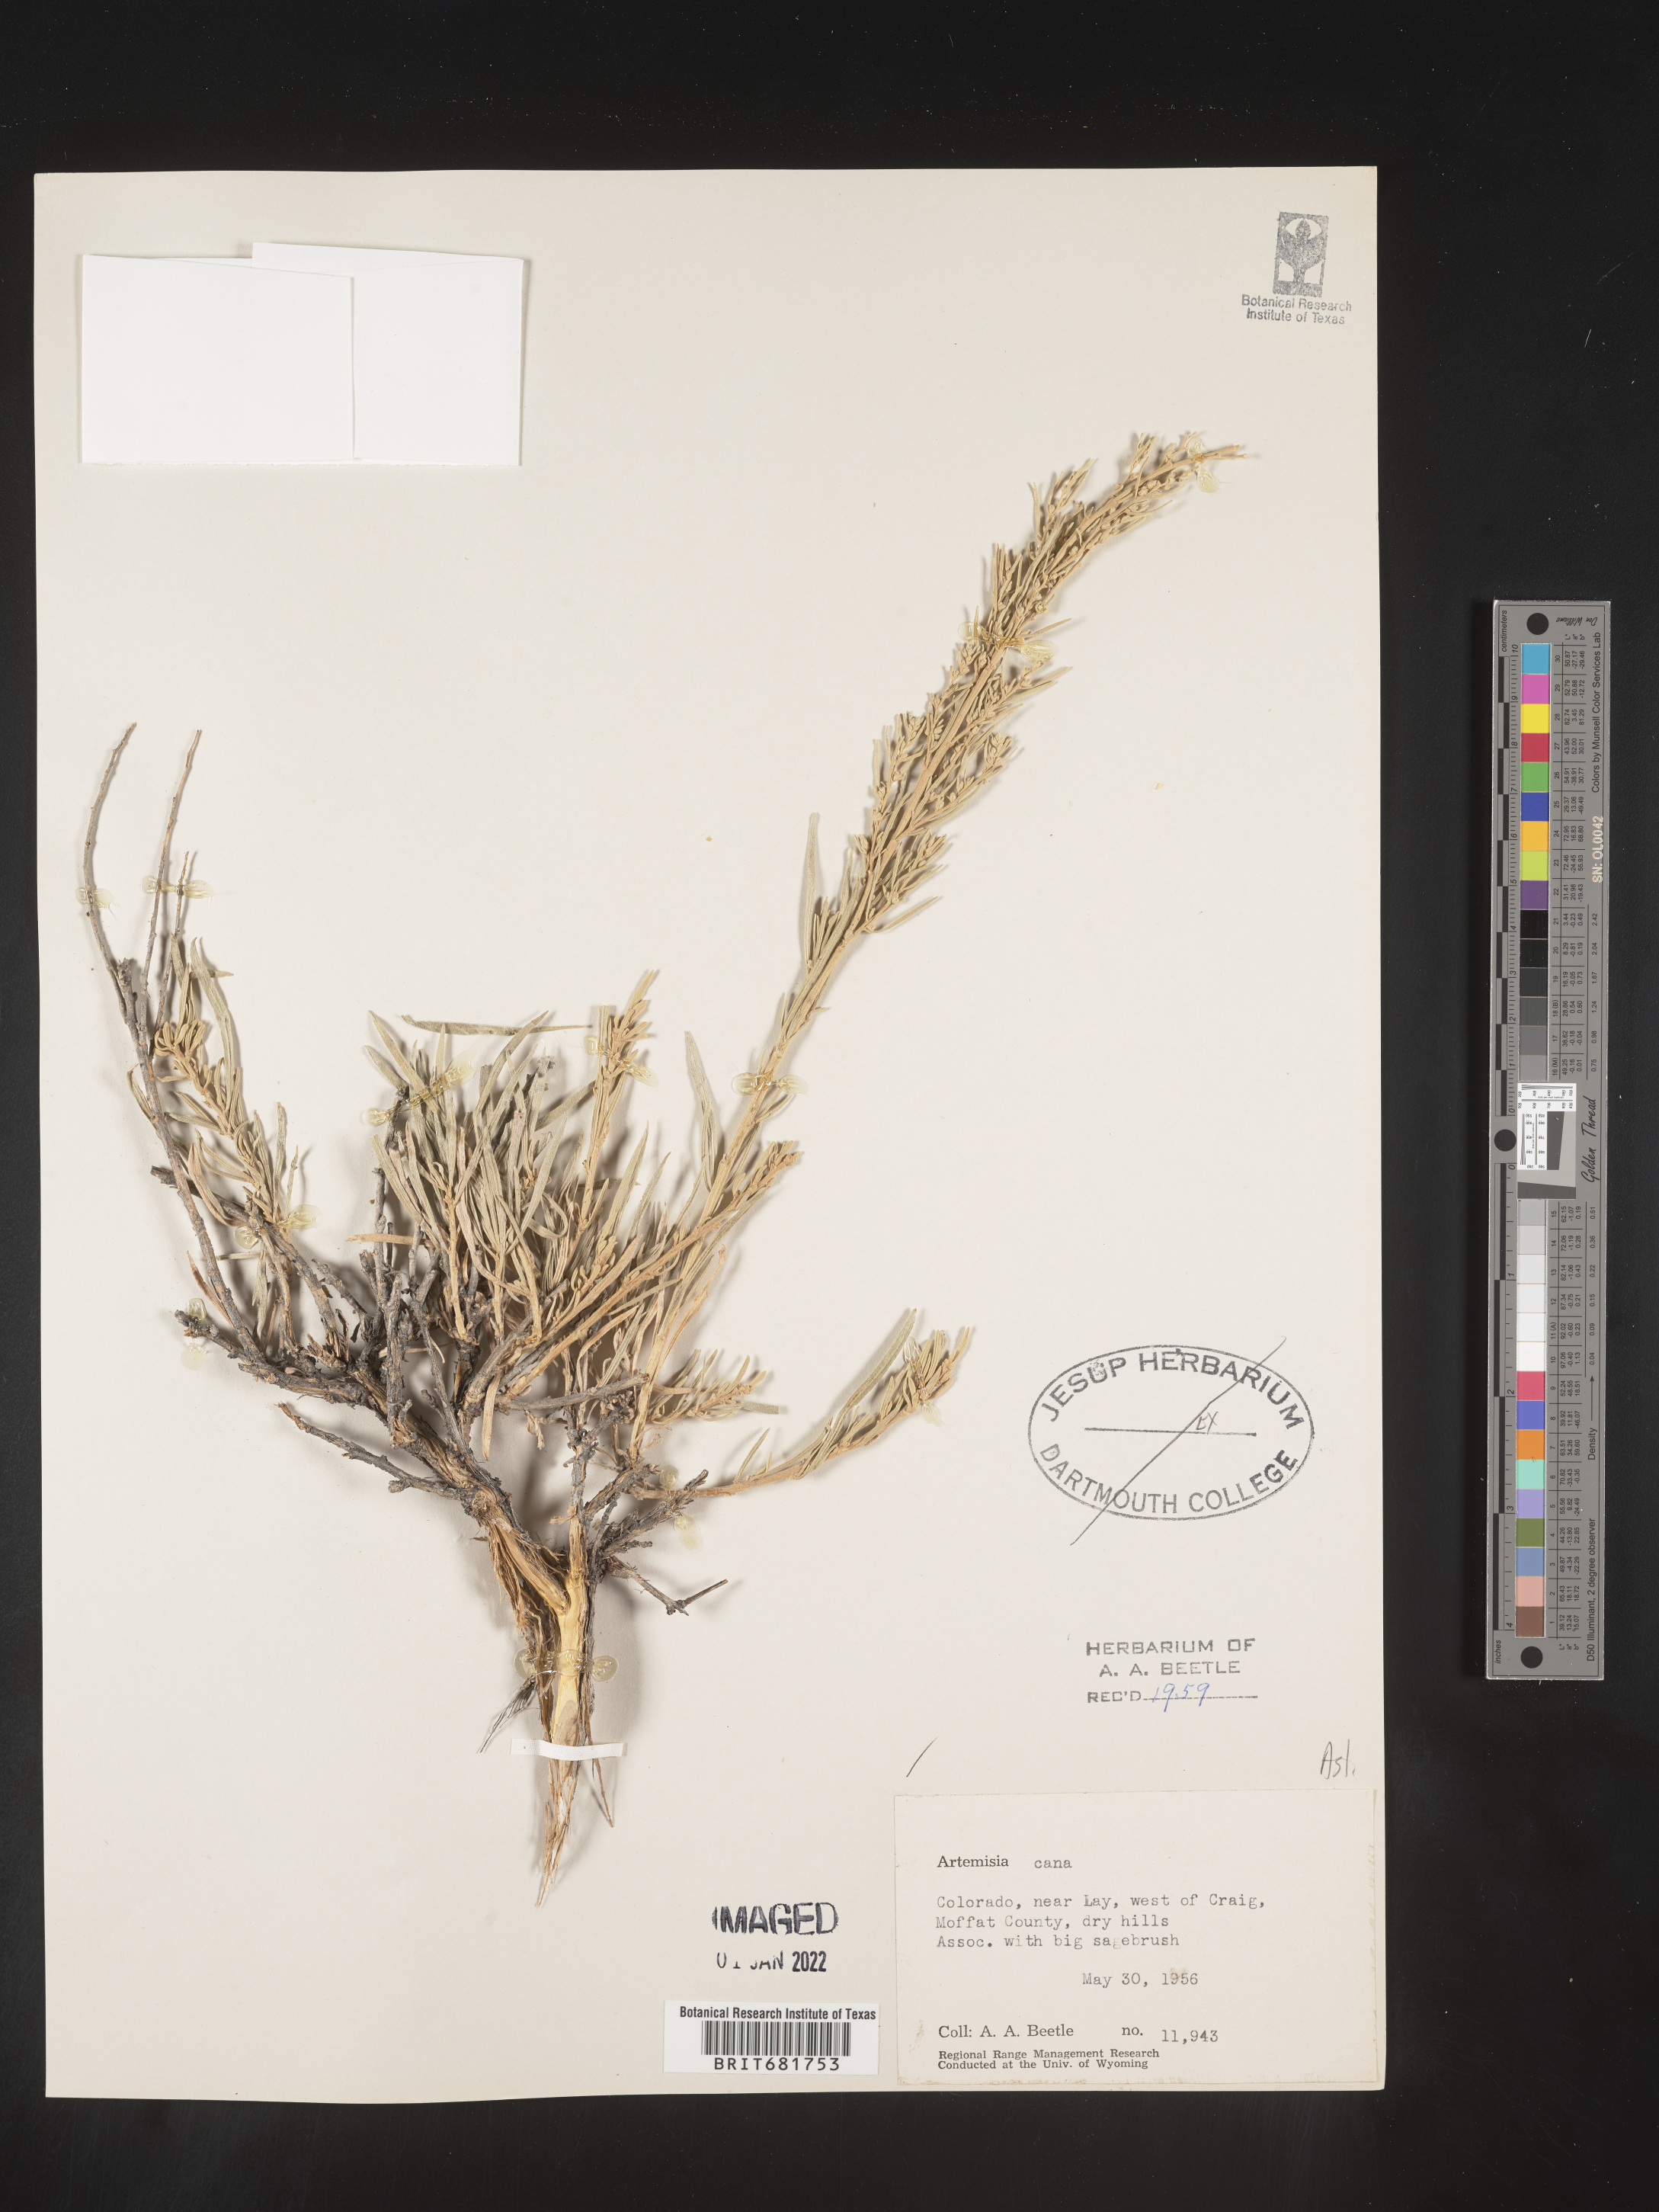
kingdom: Plantae
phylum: Tracheophyta
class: Magnoliopsida
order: Asterales
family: Asteraceae
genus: Artemisia
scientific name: Artemisia cana
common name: Silver sagebrush
